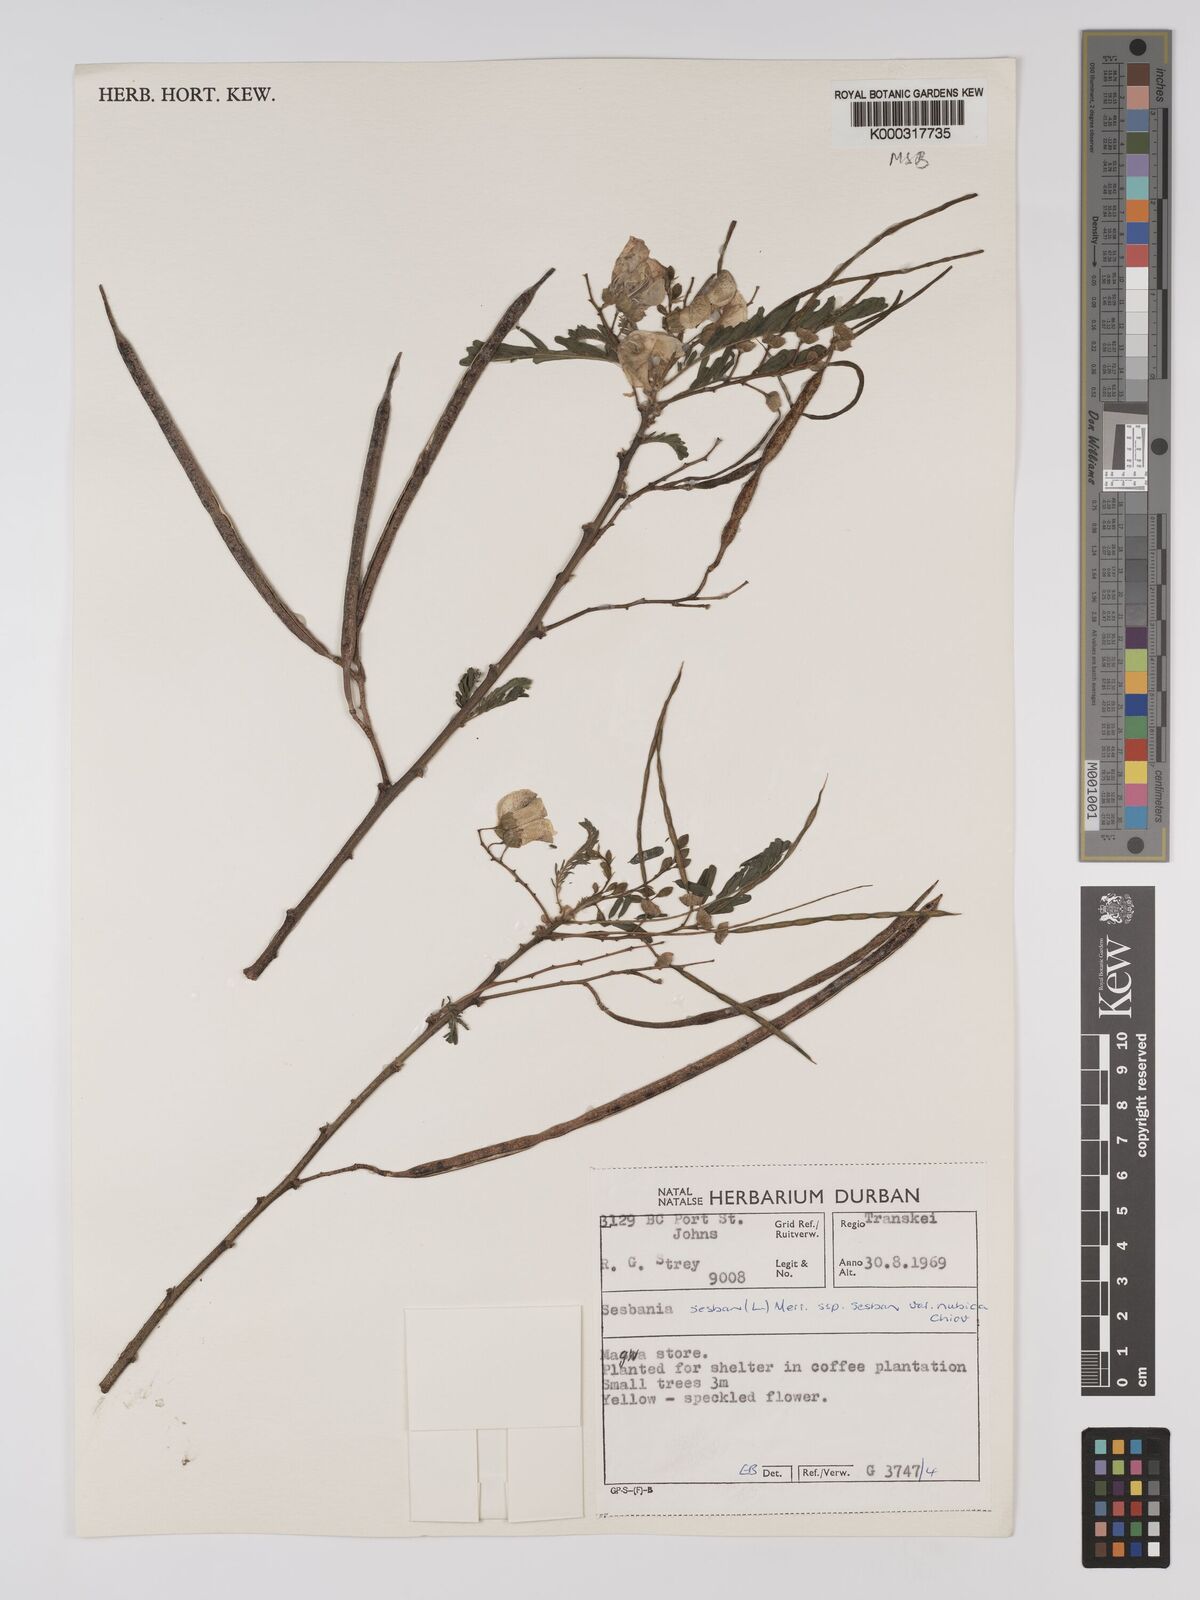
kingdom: Plantae
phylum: Tracheophyta
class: Magnoliopsida
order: Fabales
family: Fabaceae
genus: Sesbania
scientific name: Sesbania sesban
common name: Egyptian sesban
